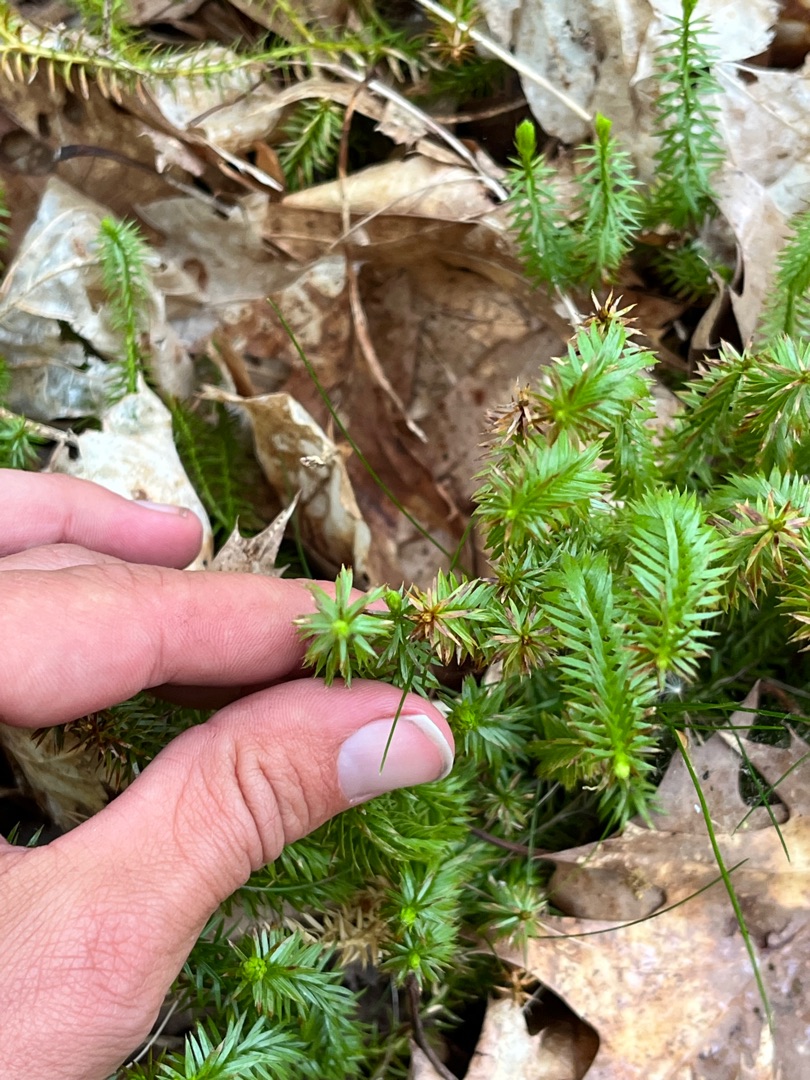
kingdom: Plantae
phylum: Tracheophyta
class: Lycopodiopsida
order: Lycopodiales
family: Lycopodiaceae
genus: Spinulum
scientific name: Spinulum annotinum
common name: Femradet ulvefod
